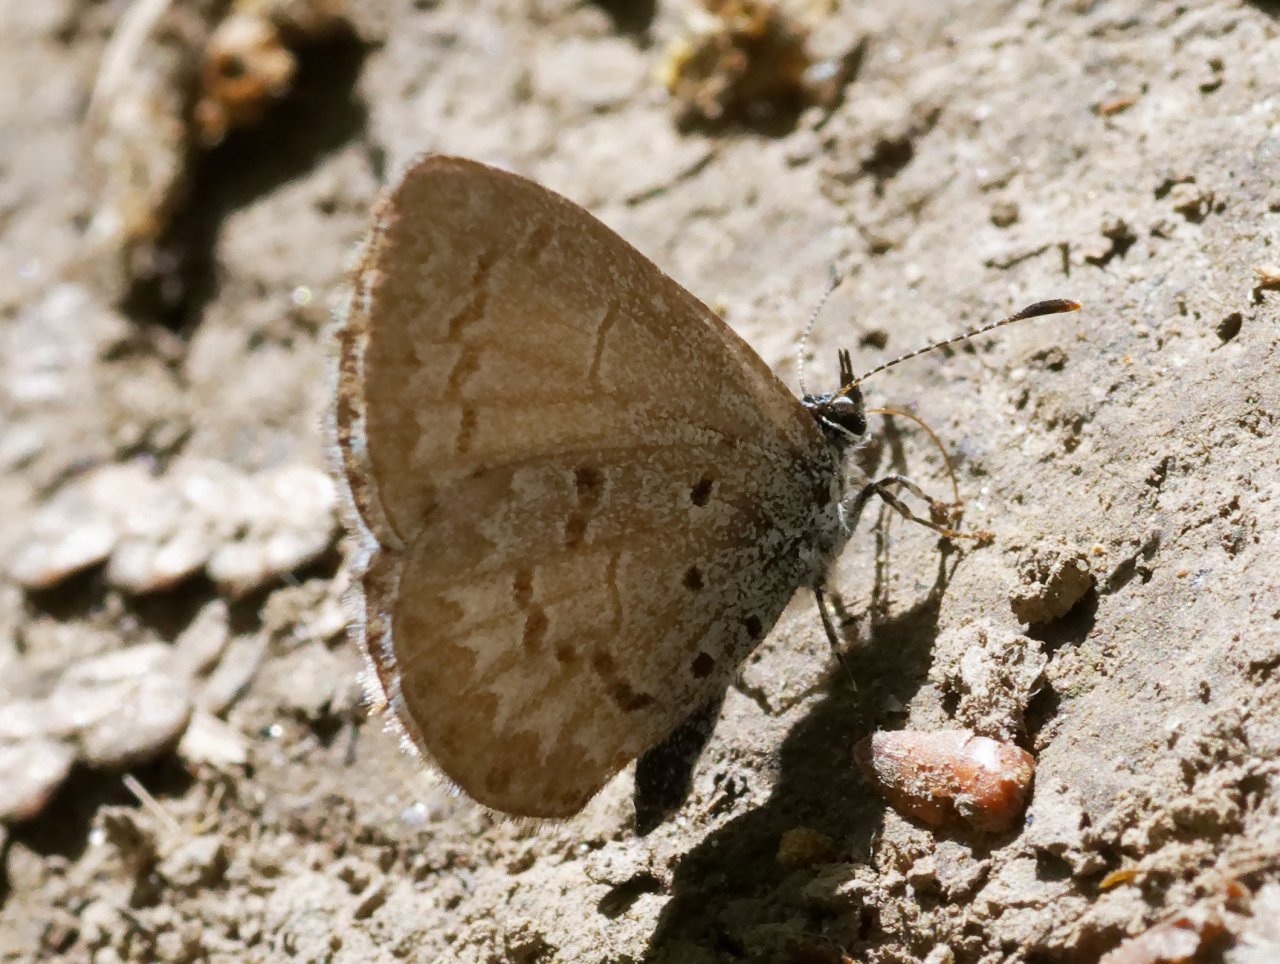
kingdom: Animalia
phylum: Arthropoda
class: Insecta
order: Lepidoptera
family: Lycaenidae
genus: Celastrina
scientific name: Celastrina
